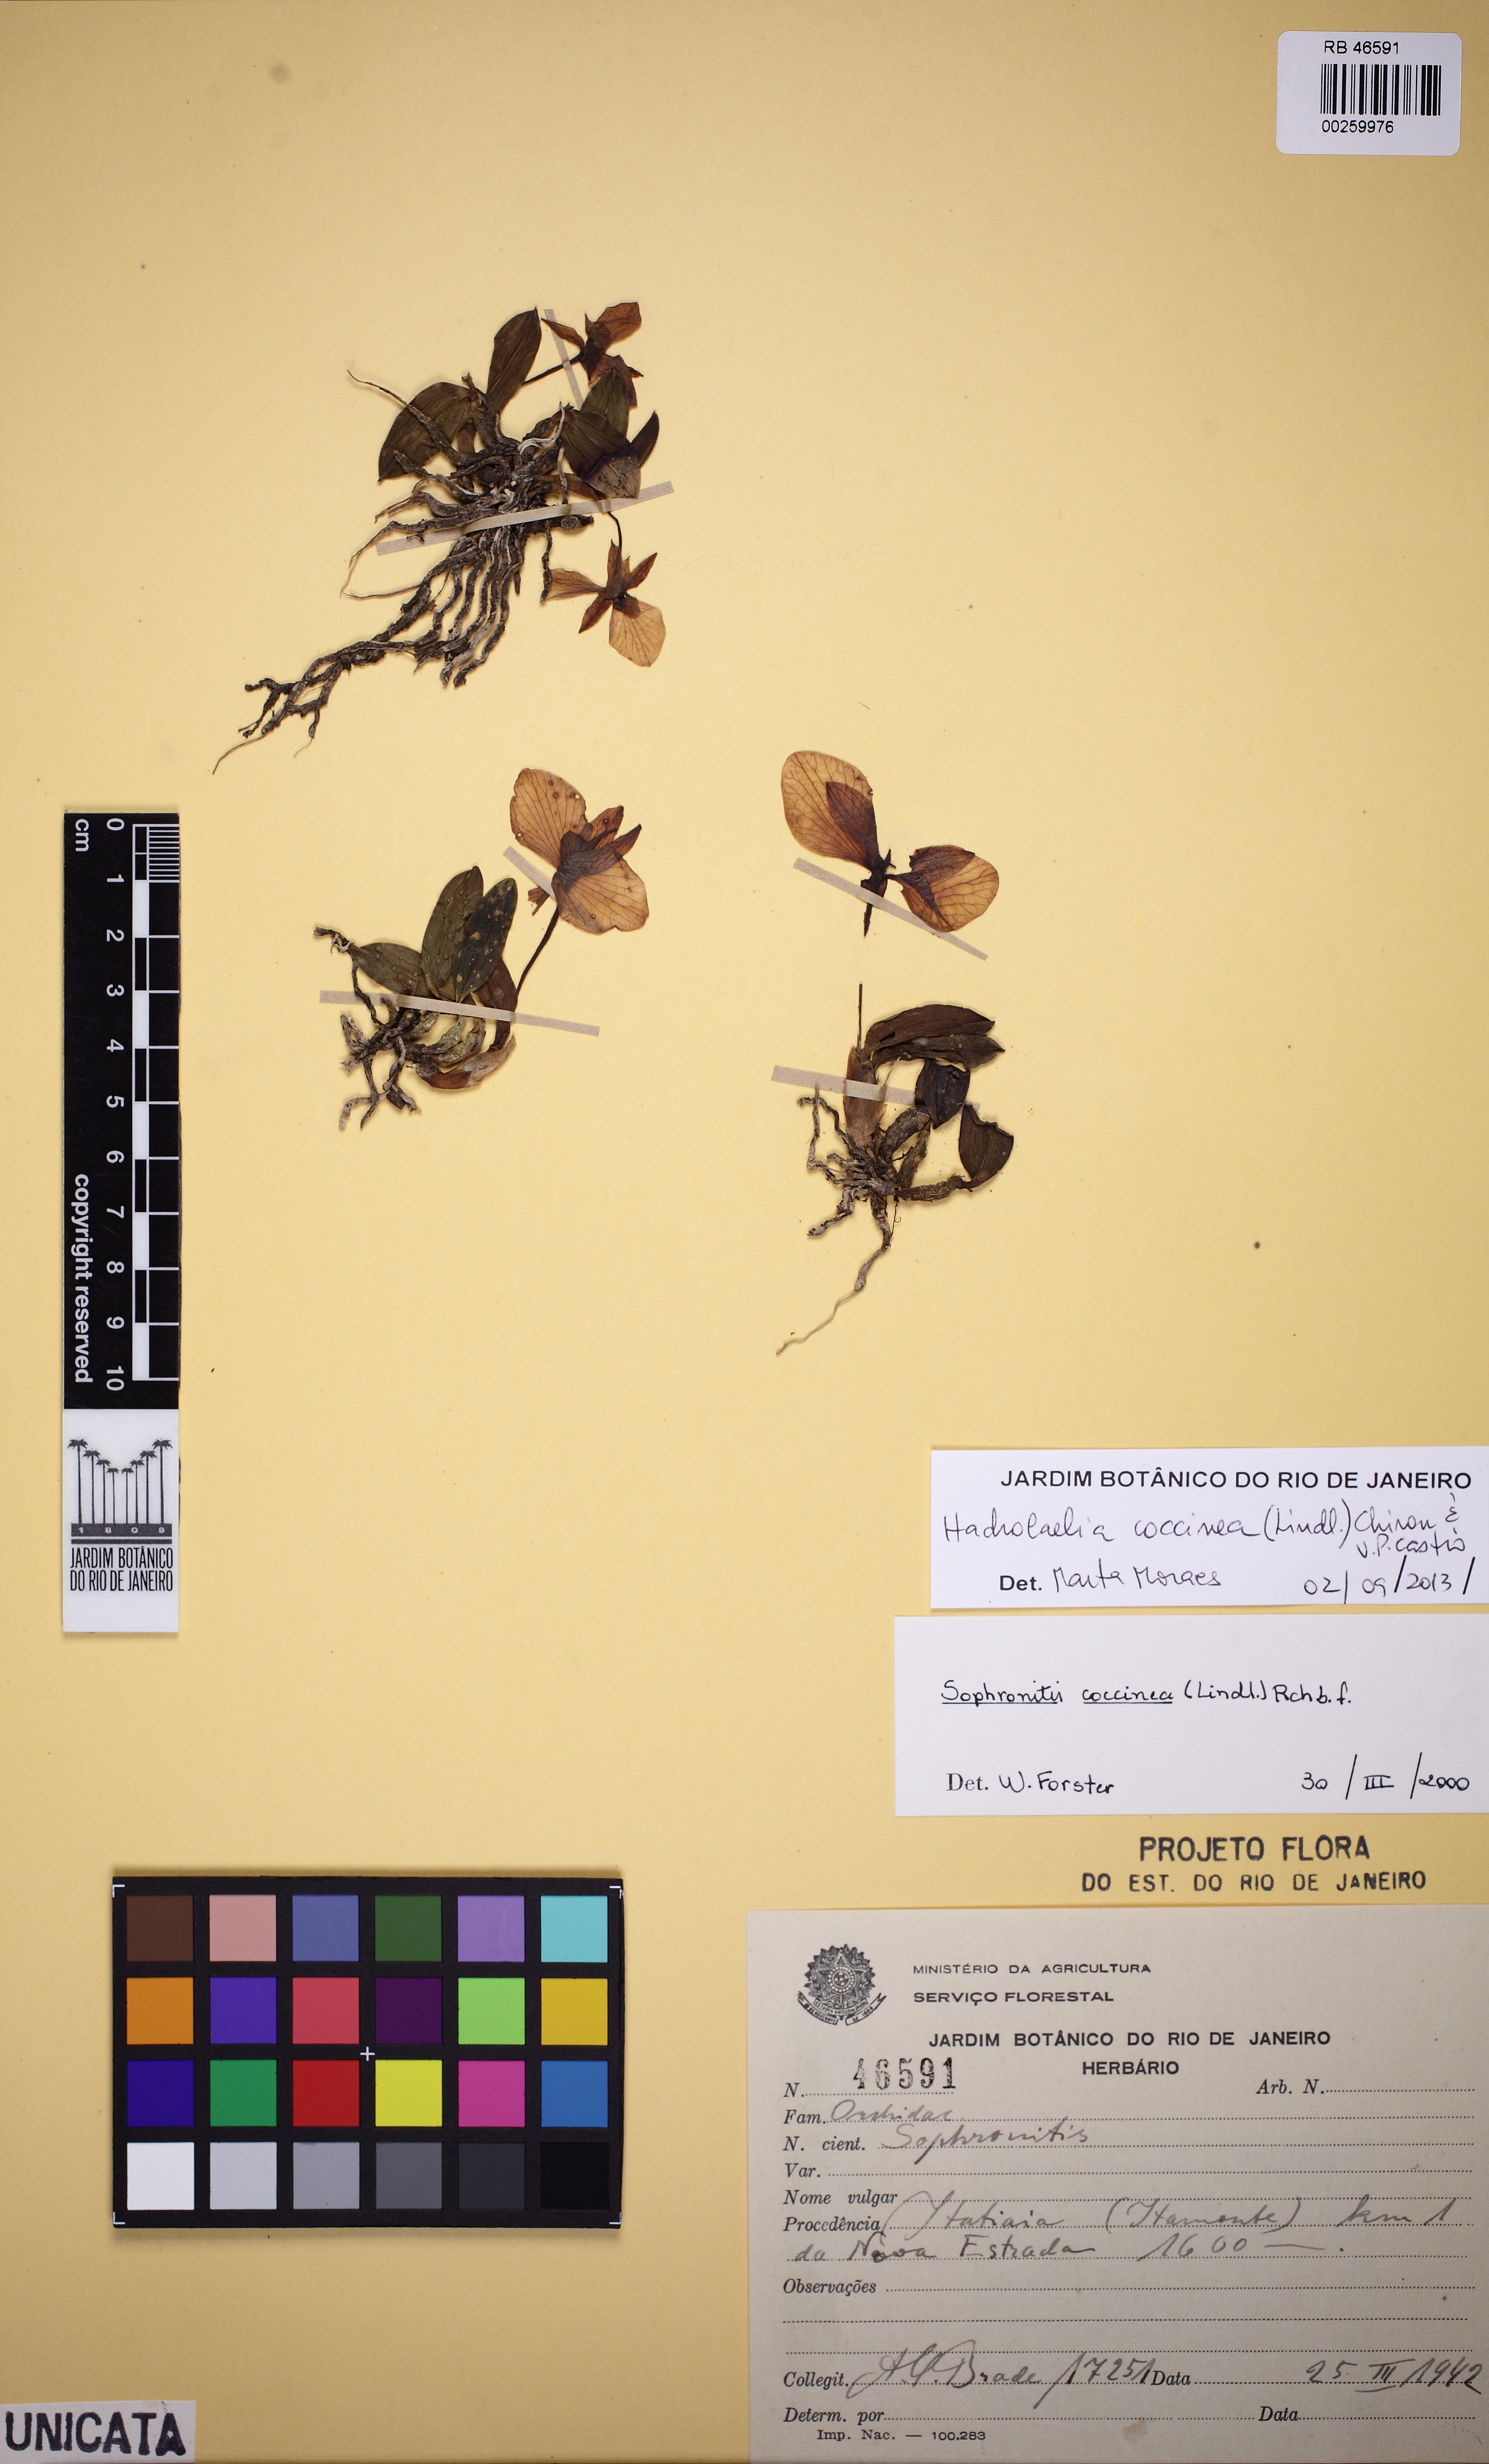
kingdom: Plantae
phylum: Tracheophyta
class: Liliopsida
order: Asparagales
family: Orchidaceae
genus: Cattleya
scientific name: Cattleya coccinea
